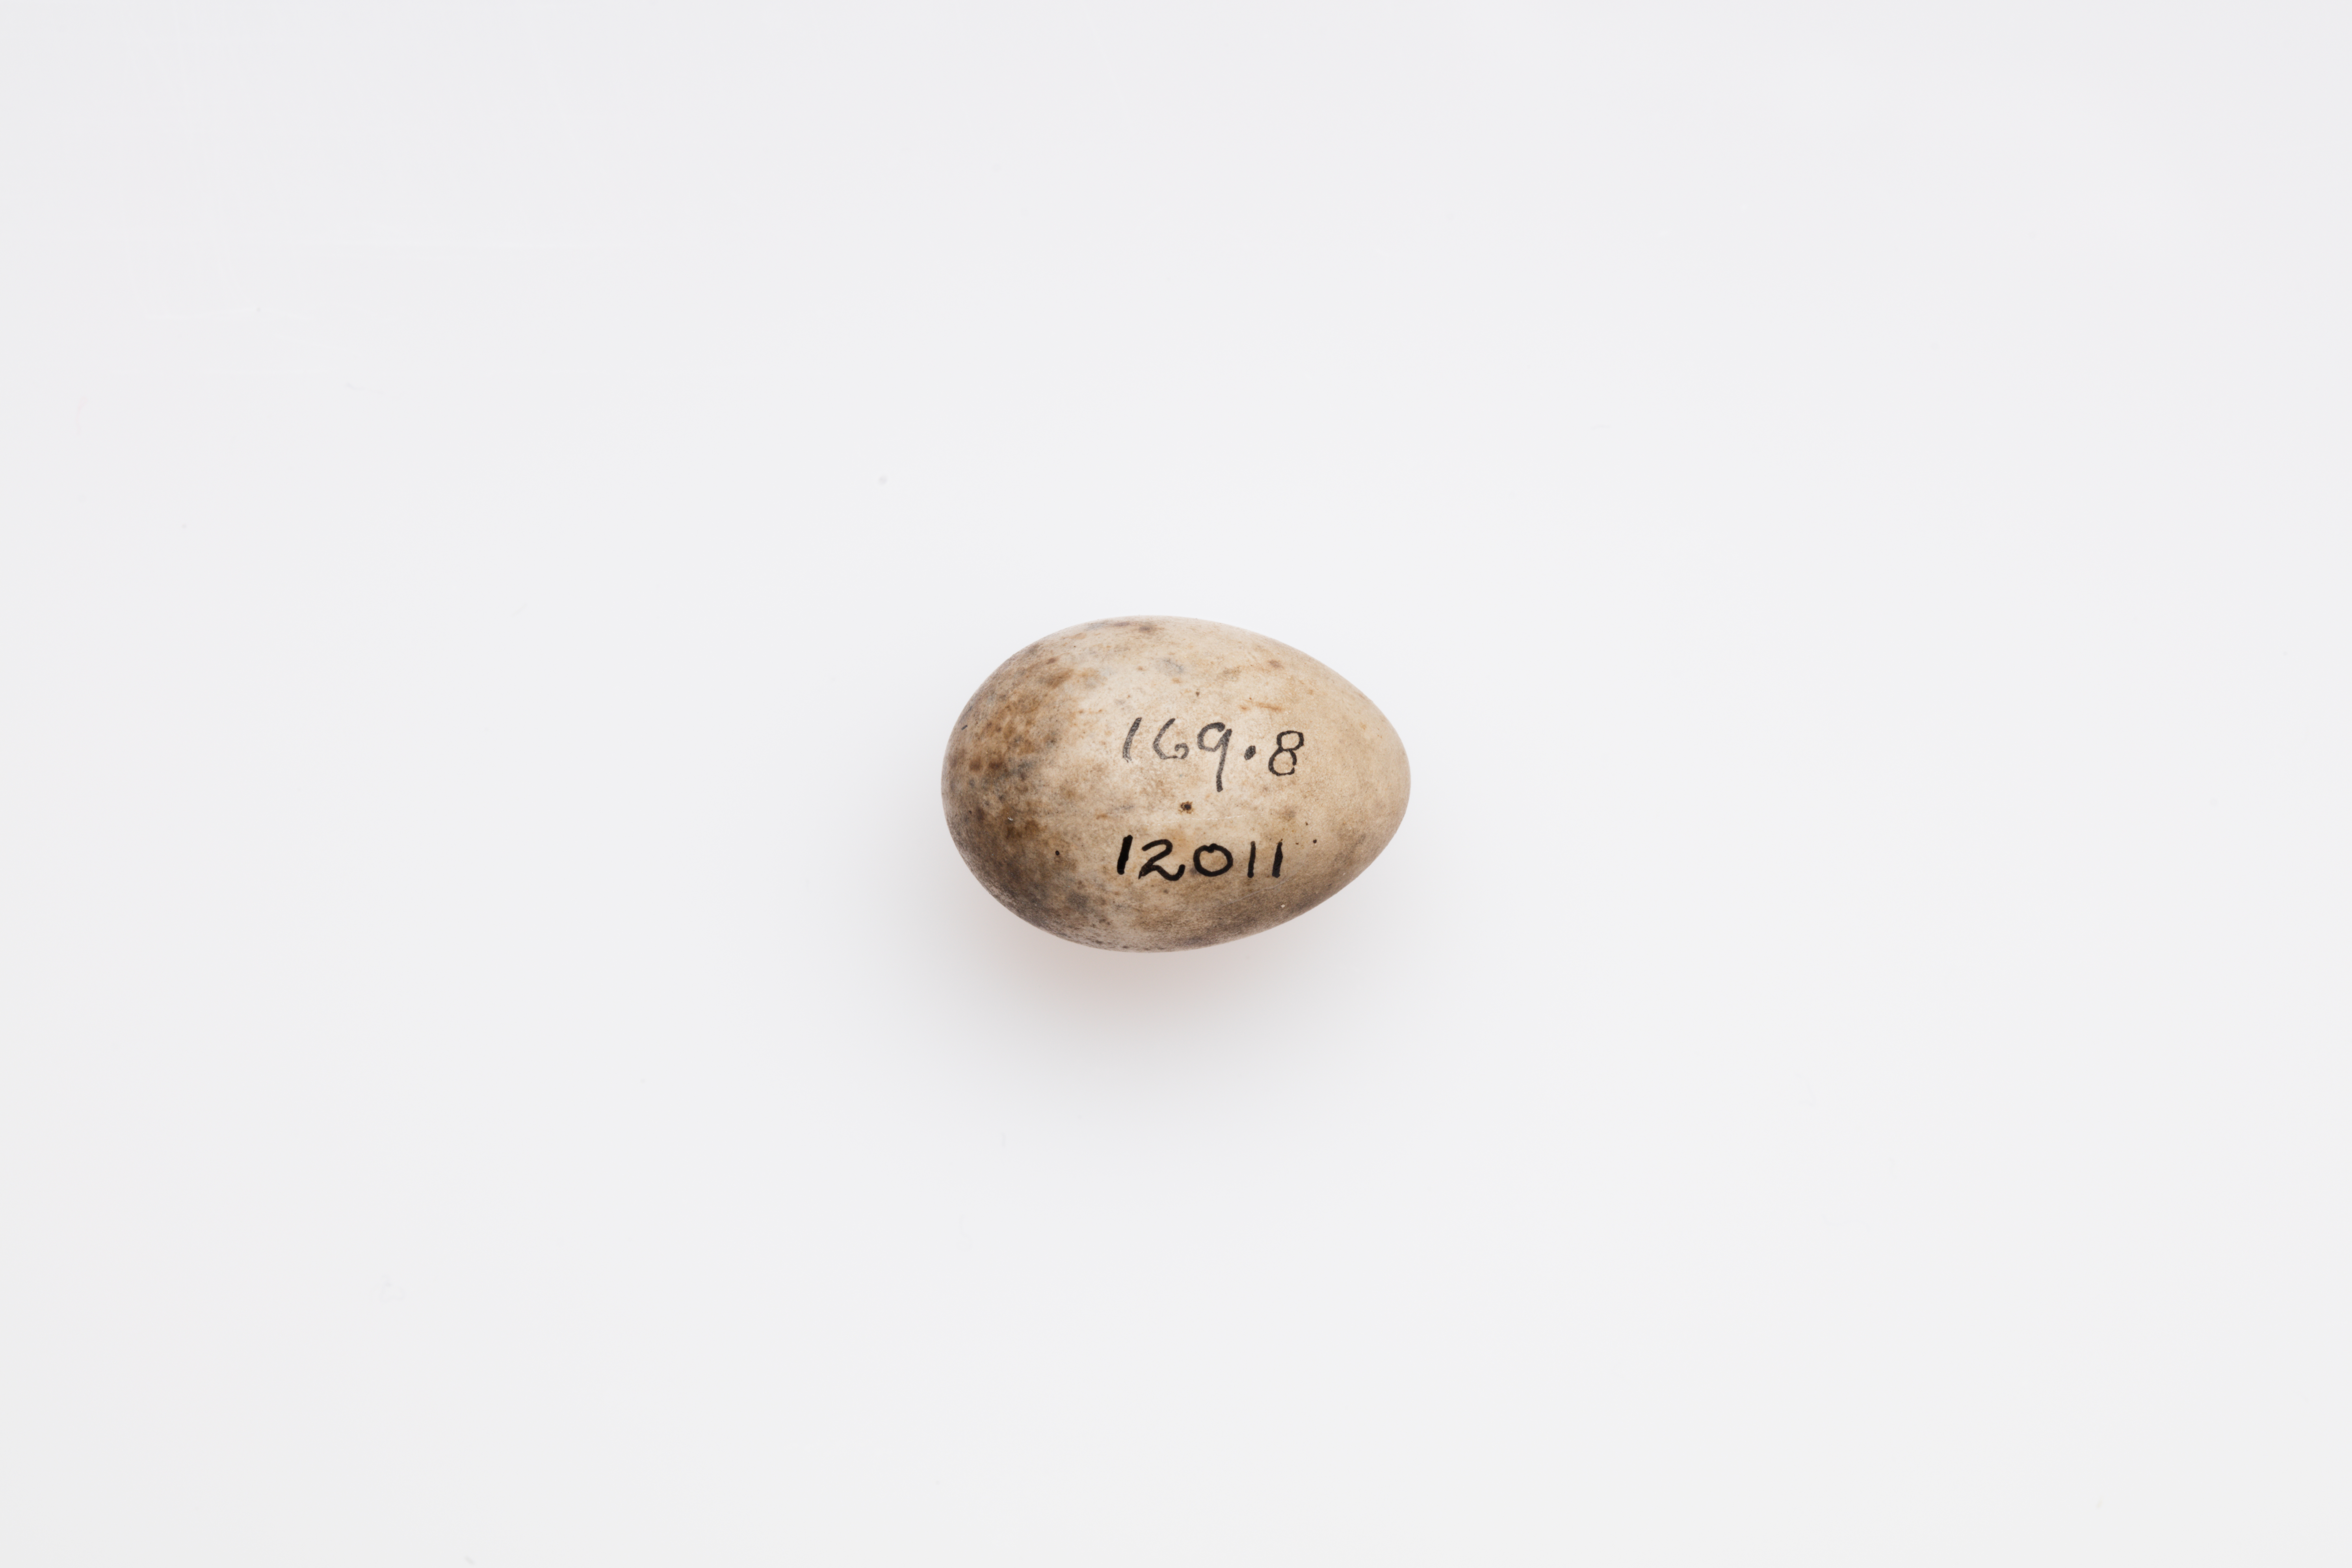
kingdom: Animalia
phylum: Chordata
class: Aves
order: Passeriformes
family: Sylviidae
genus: Sylvia
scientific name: Sylvia atricapilla
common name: Eurasian blackcap
